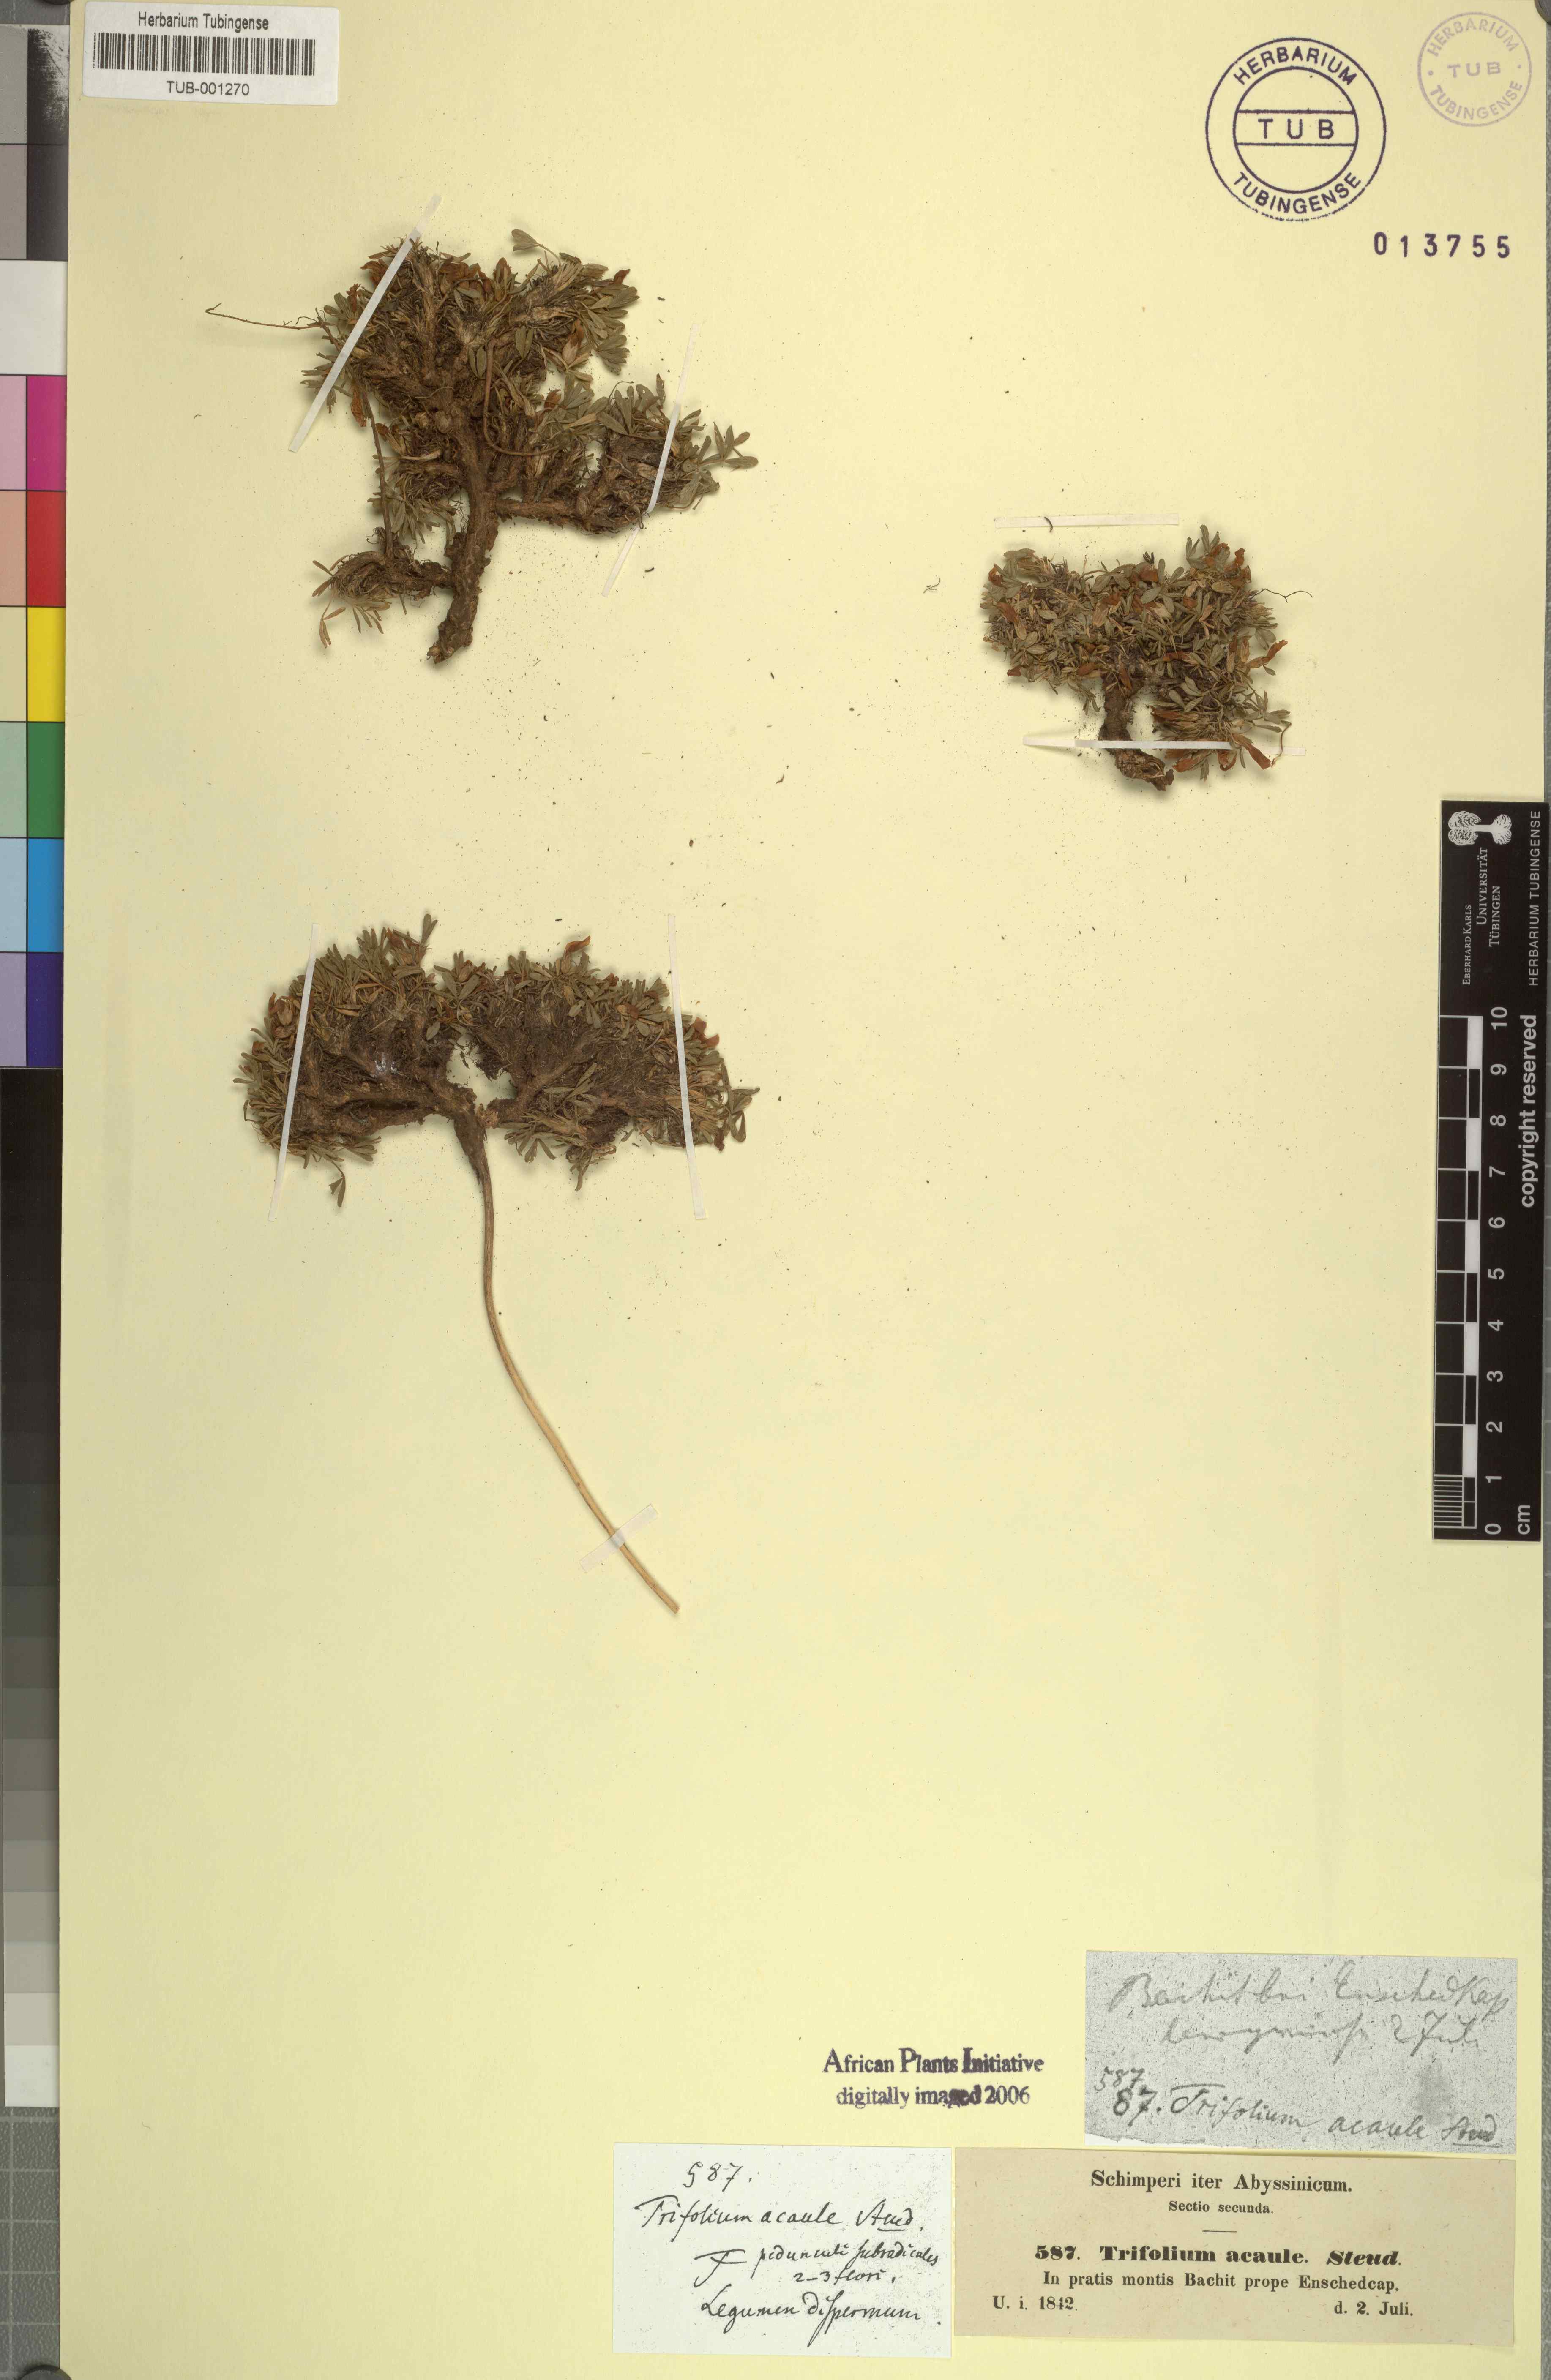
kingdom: Plantae
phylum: Tracheophyta
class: Magnoliopsida
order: Fabales
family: Fabaceae
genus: Trifolium
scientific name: Trifolium acaule
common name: Stemless clover
